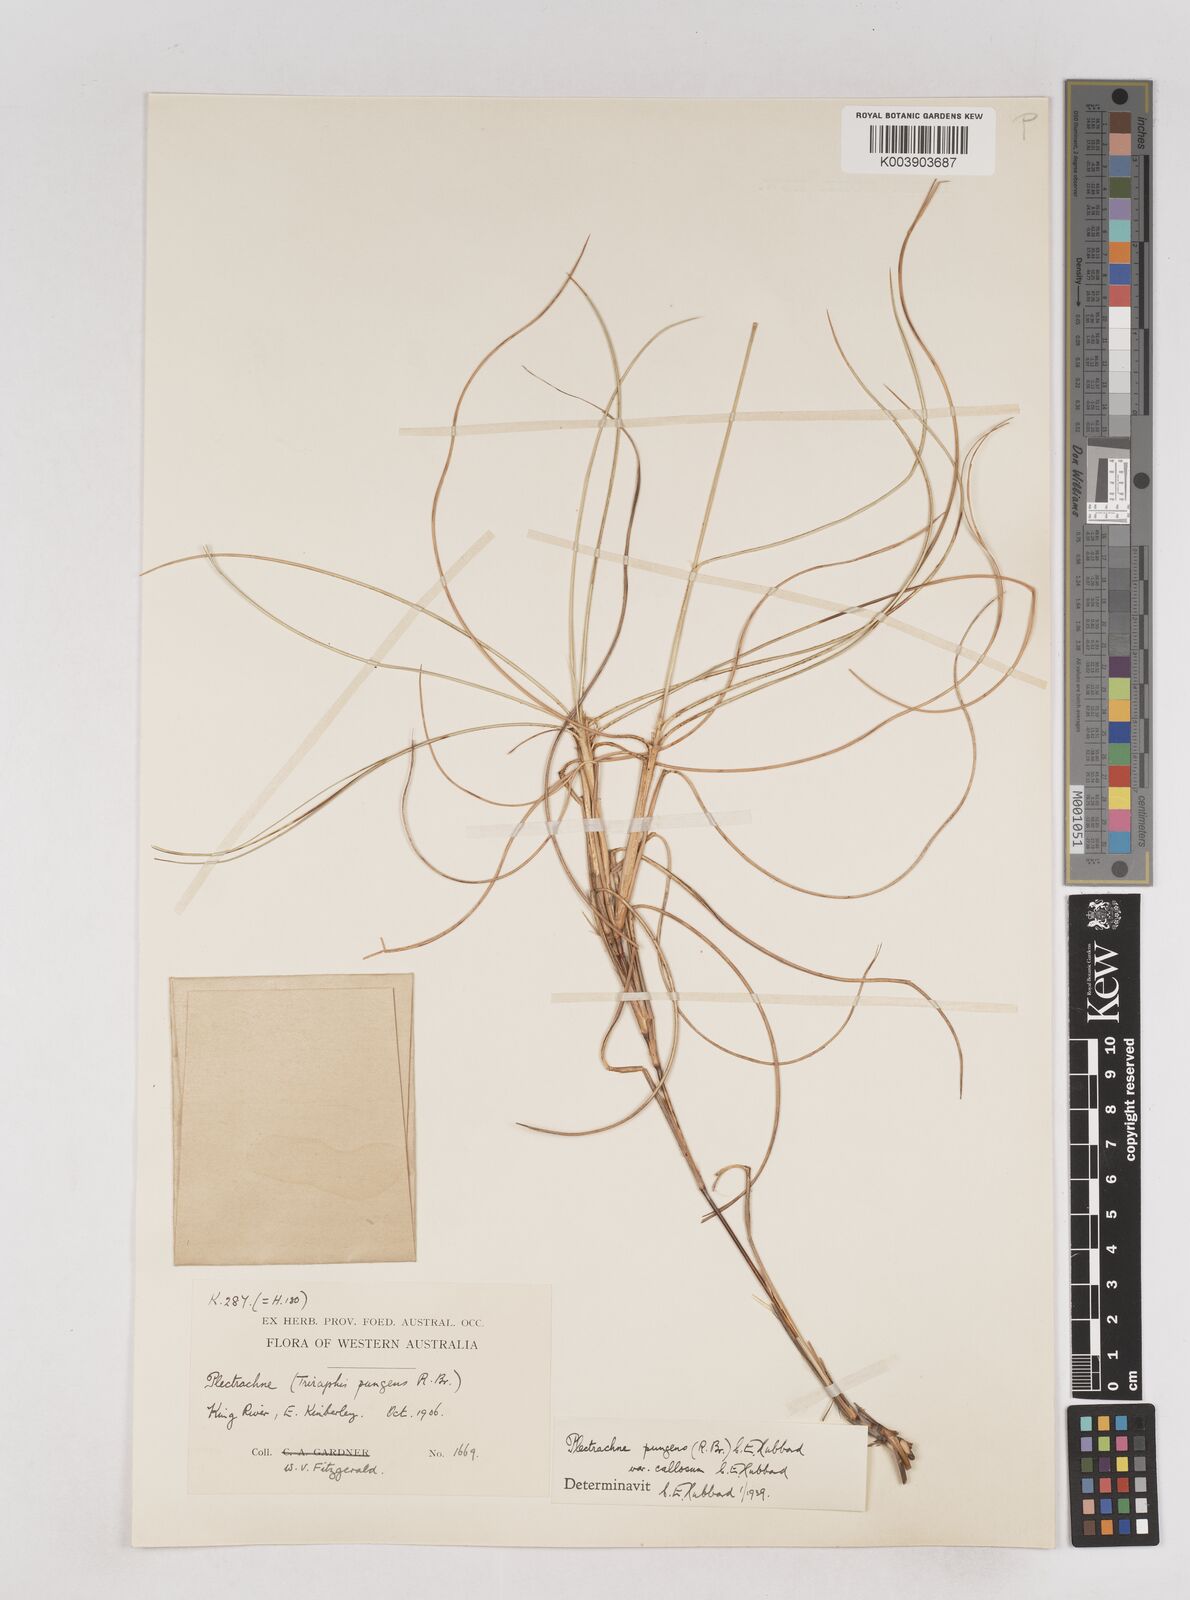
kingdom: Plantae
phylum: Tracheophyta
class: Liliopsida
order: Poales
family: Poaceae
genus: Triodia
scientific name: Triodia bitextura
